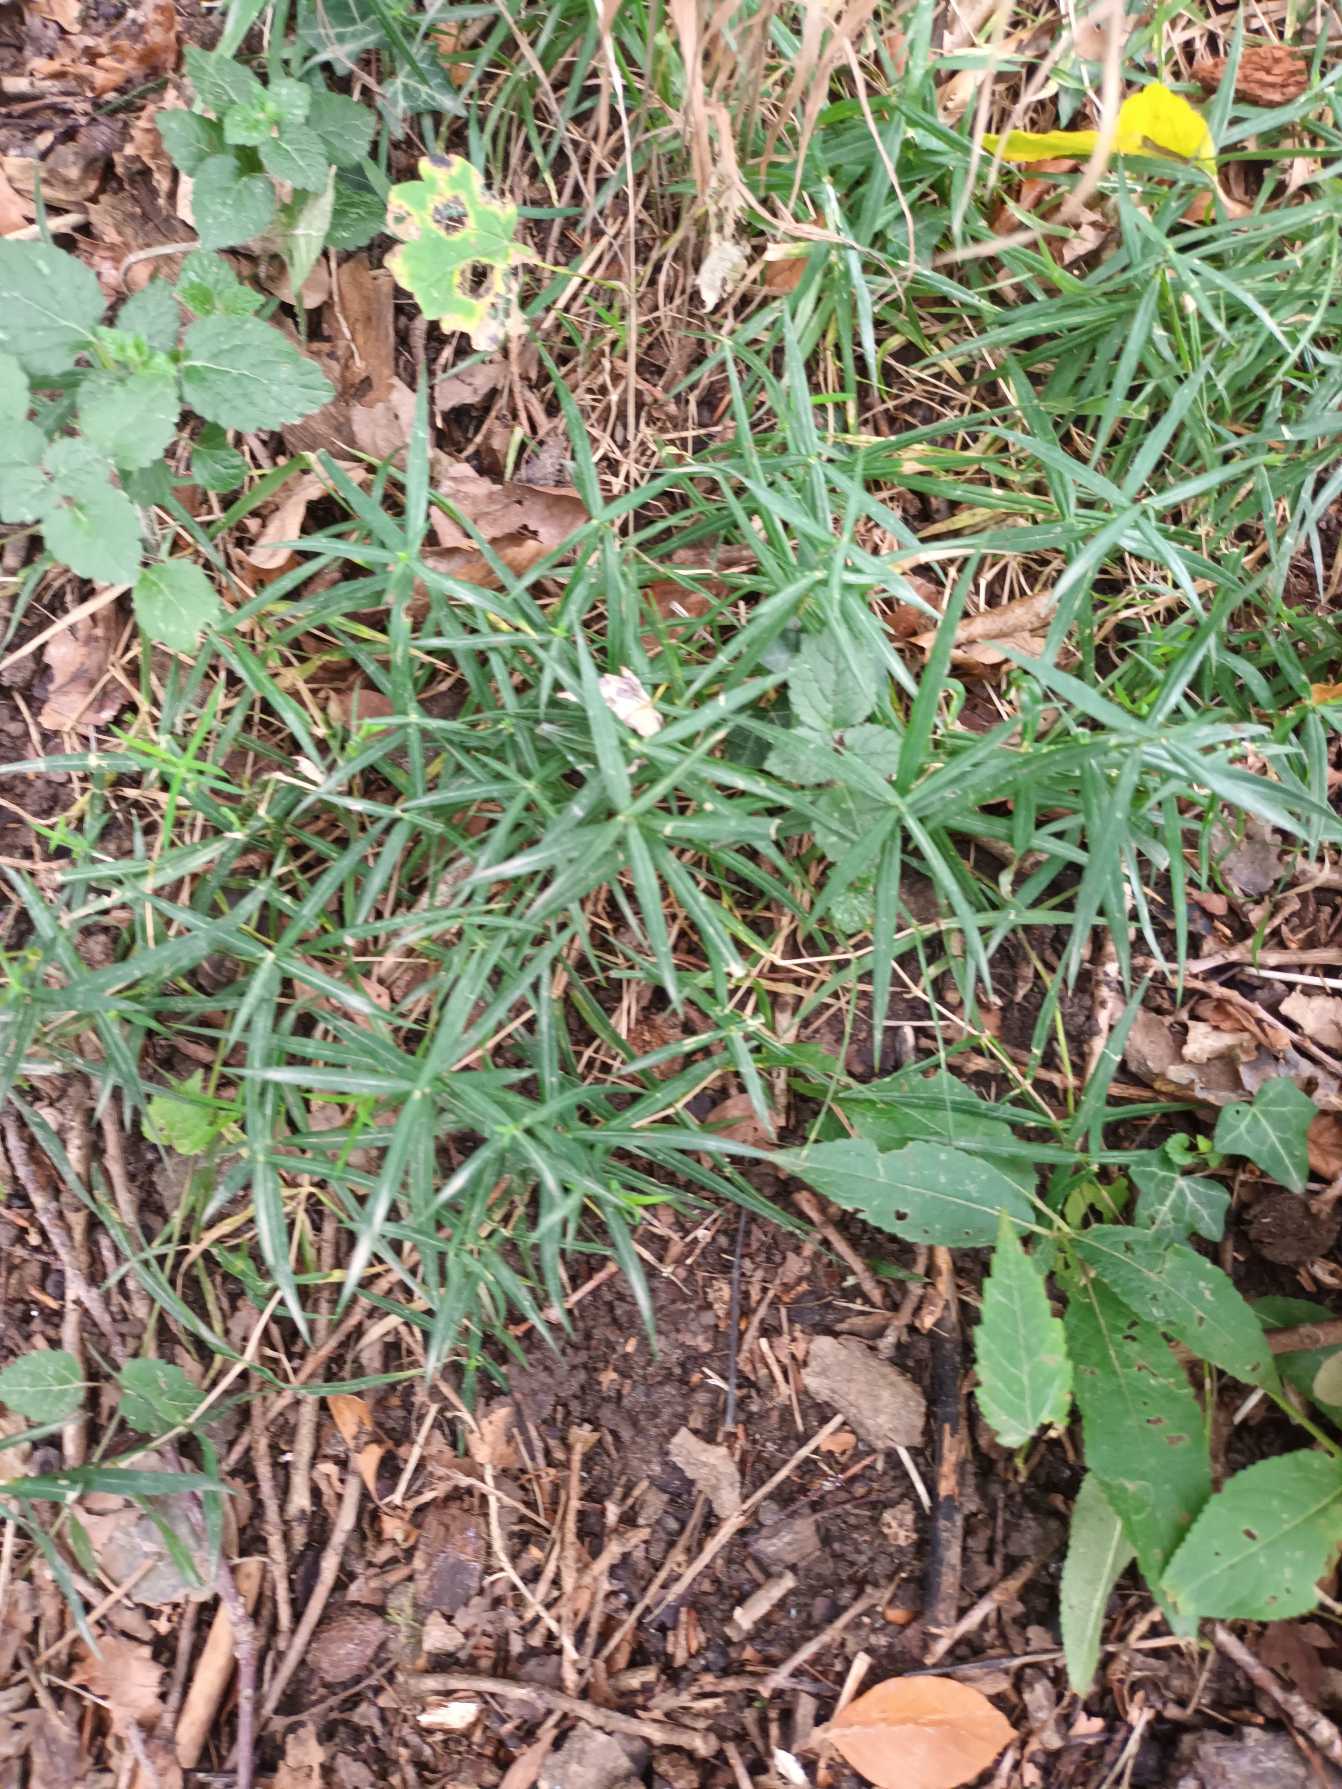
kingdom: Plantae
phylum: Tracheophyta
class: Magnoliopsida
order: Caryophyllales
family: Caryophyllaceae
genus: Rabelera
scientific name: Rabelera holostea
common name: Stor fladstjerne
